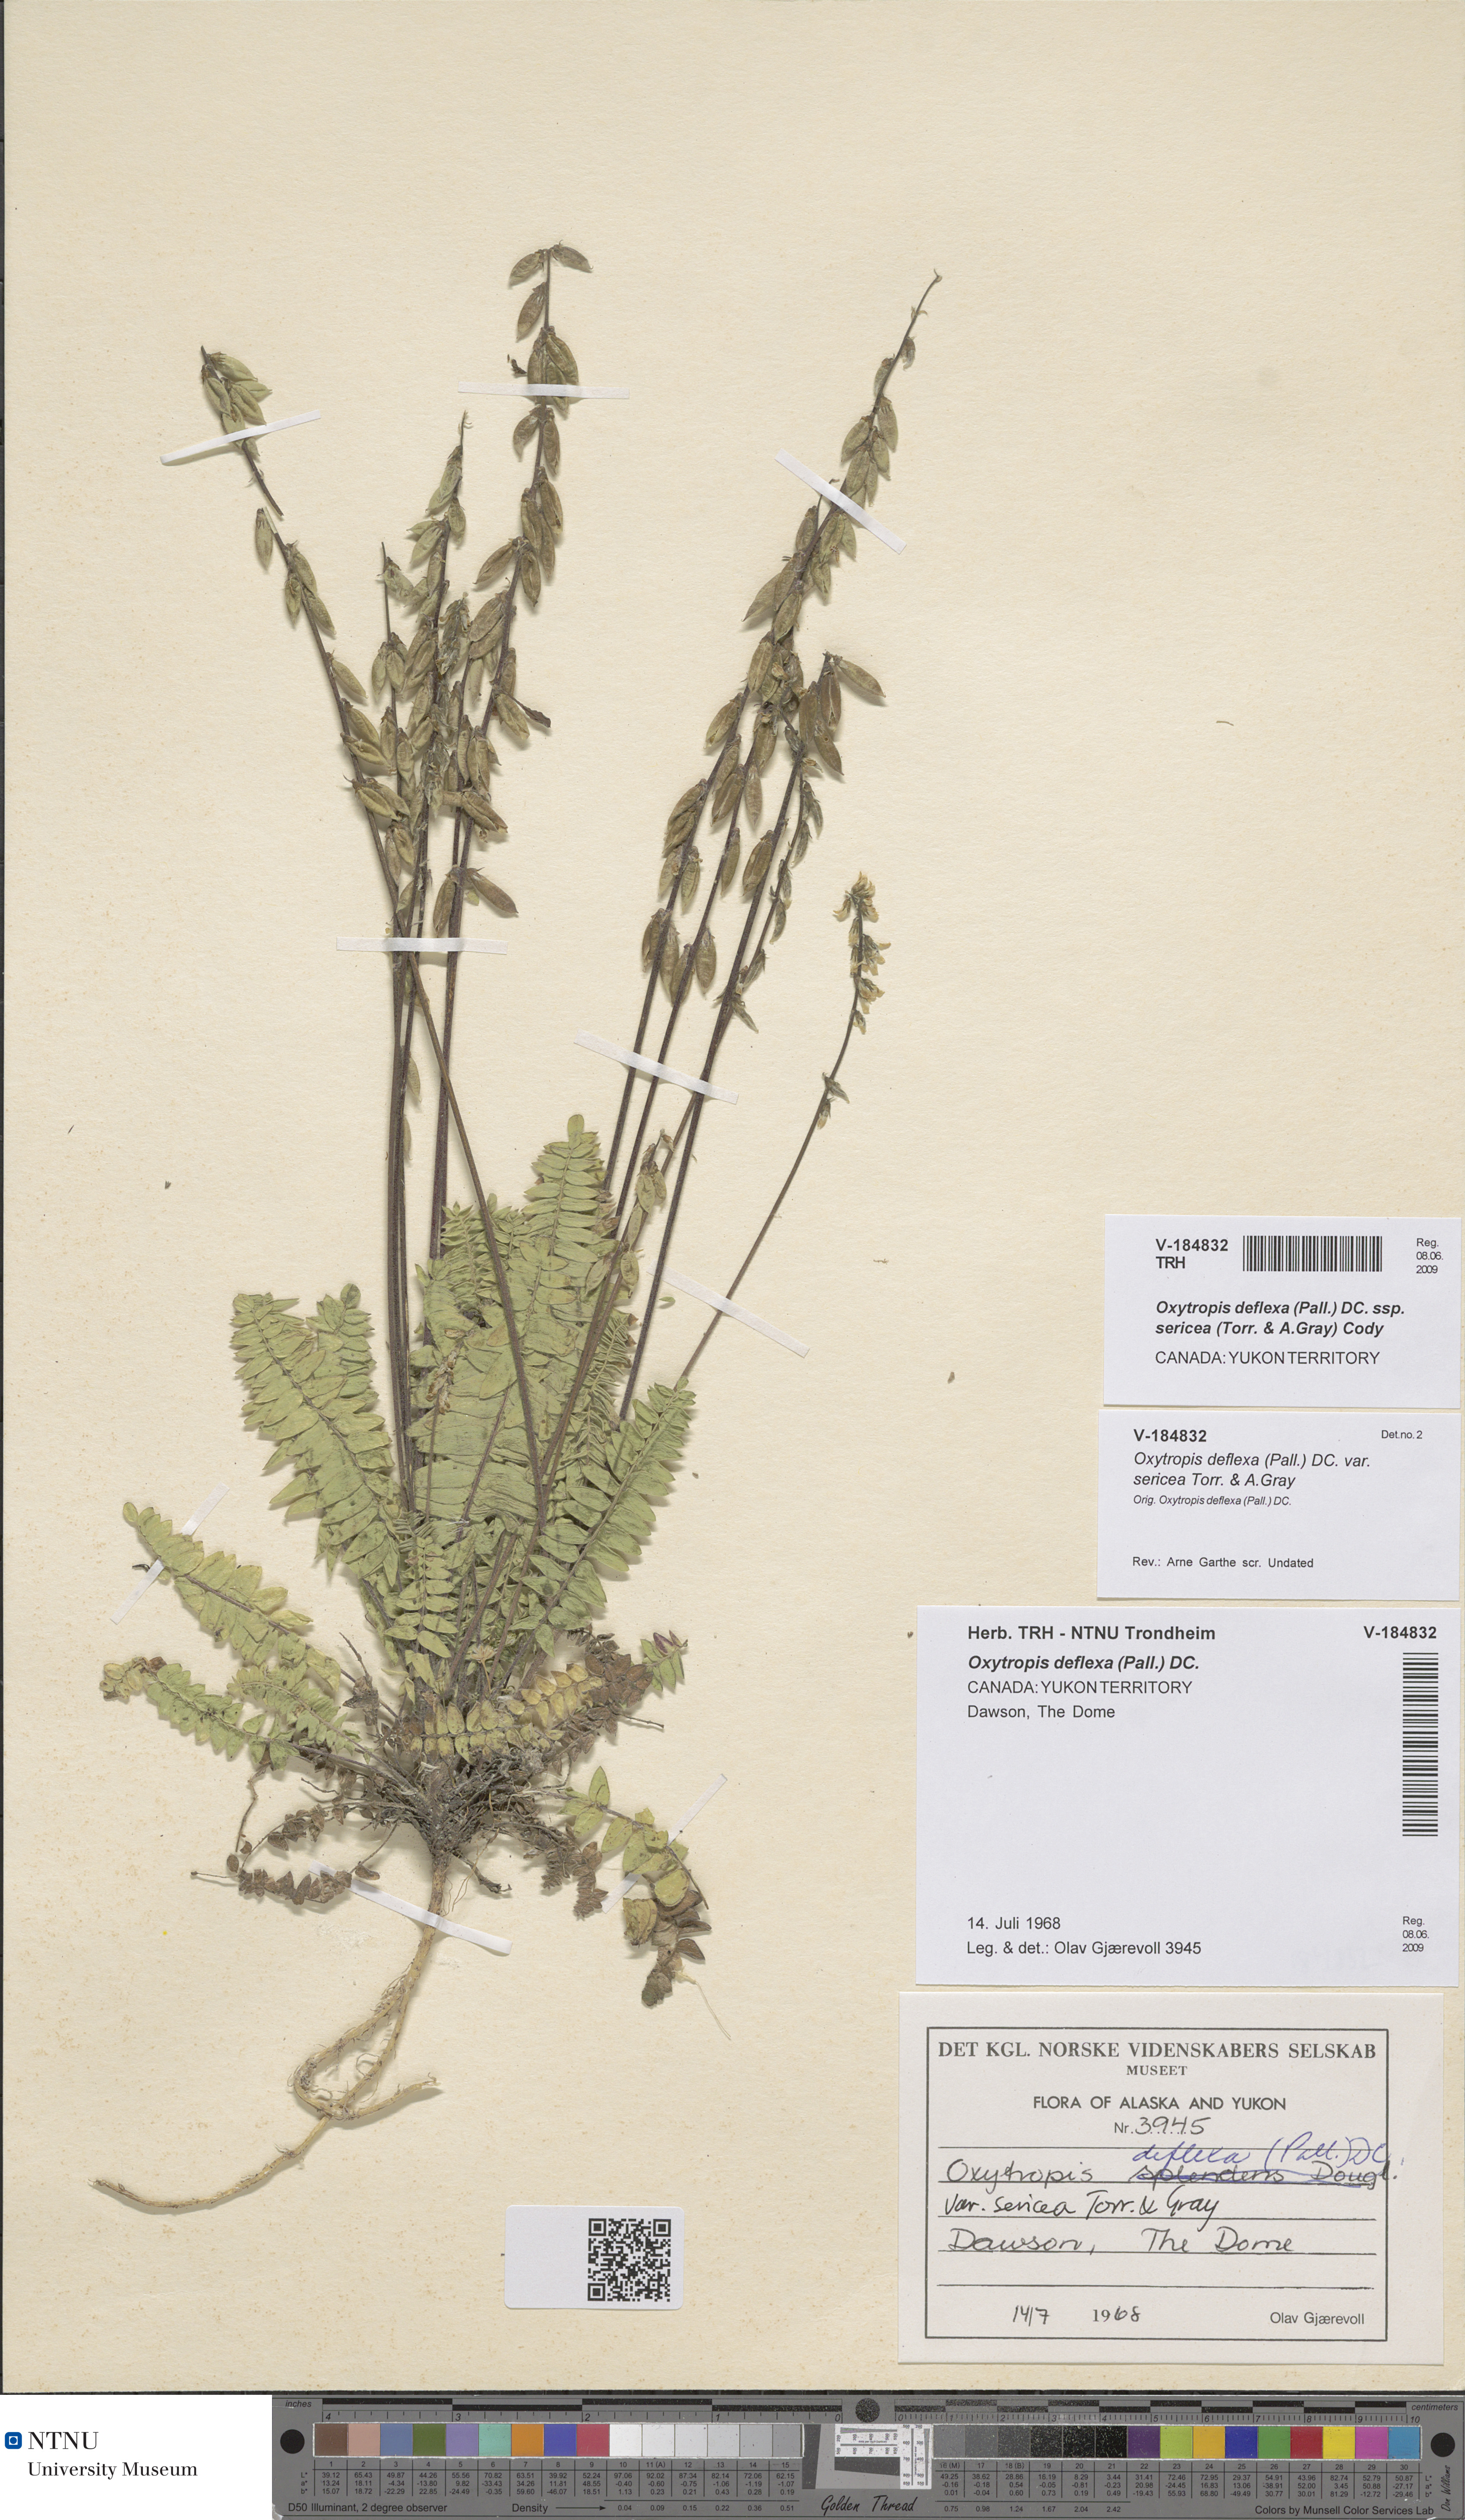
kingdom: Plantae
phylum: Tracheophyta
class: Magnoliopsida
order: Fabales
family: Fabaceae
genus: Oxytropis
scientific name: Oxytropis deflexa
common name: Stemmed oxytrope
